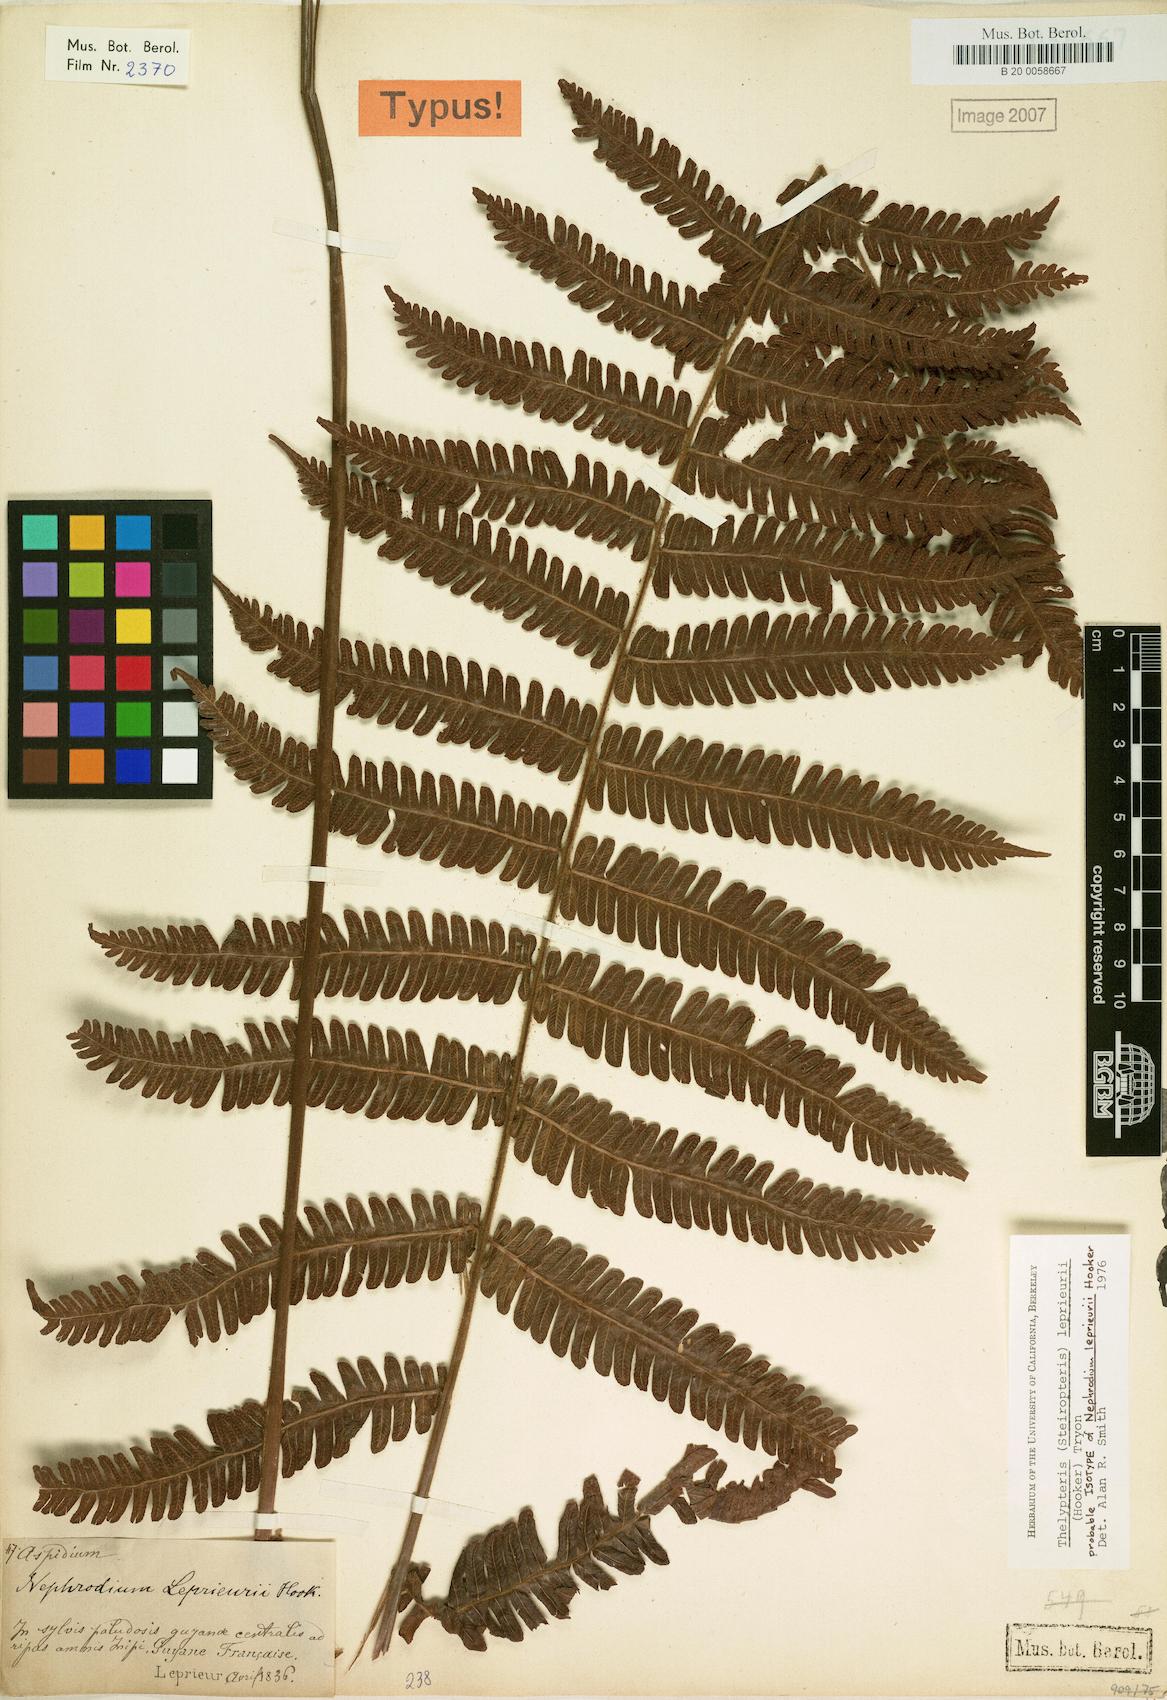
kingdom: Plantae
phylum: Tracheophyta
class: Polypodiopsida
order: Polypodiales
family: Thelypteridaceae
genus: Steiropteris
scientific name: Steiropteris leprieurii
